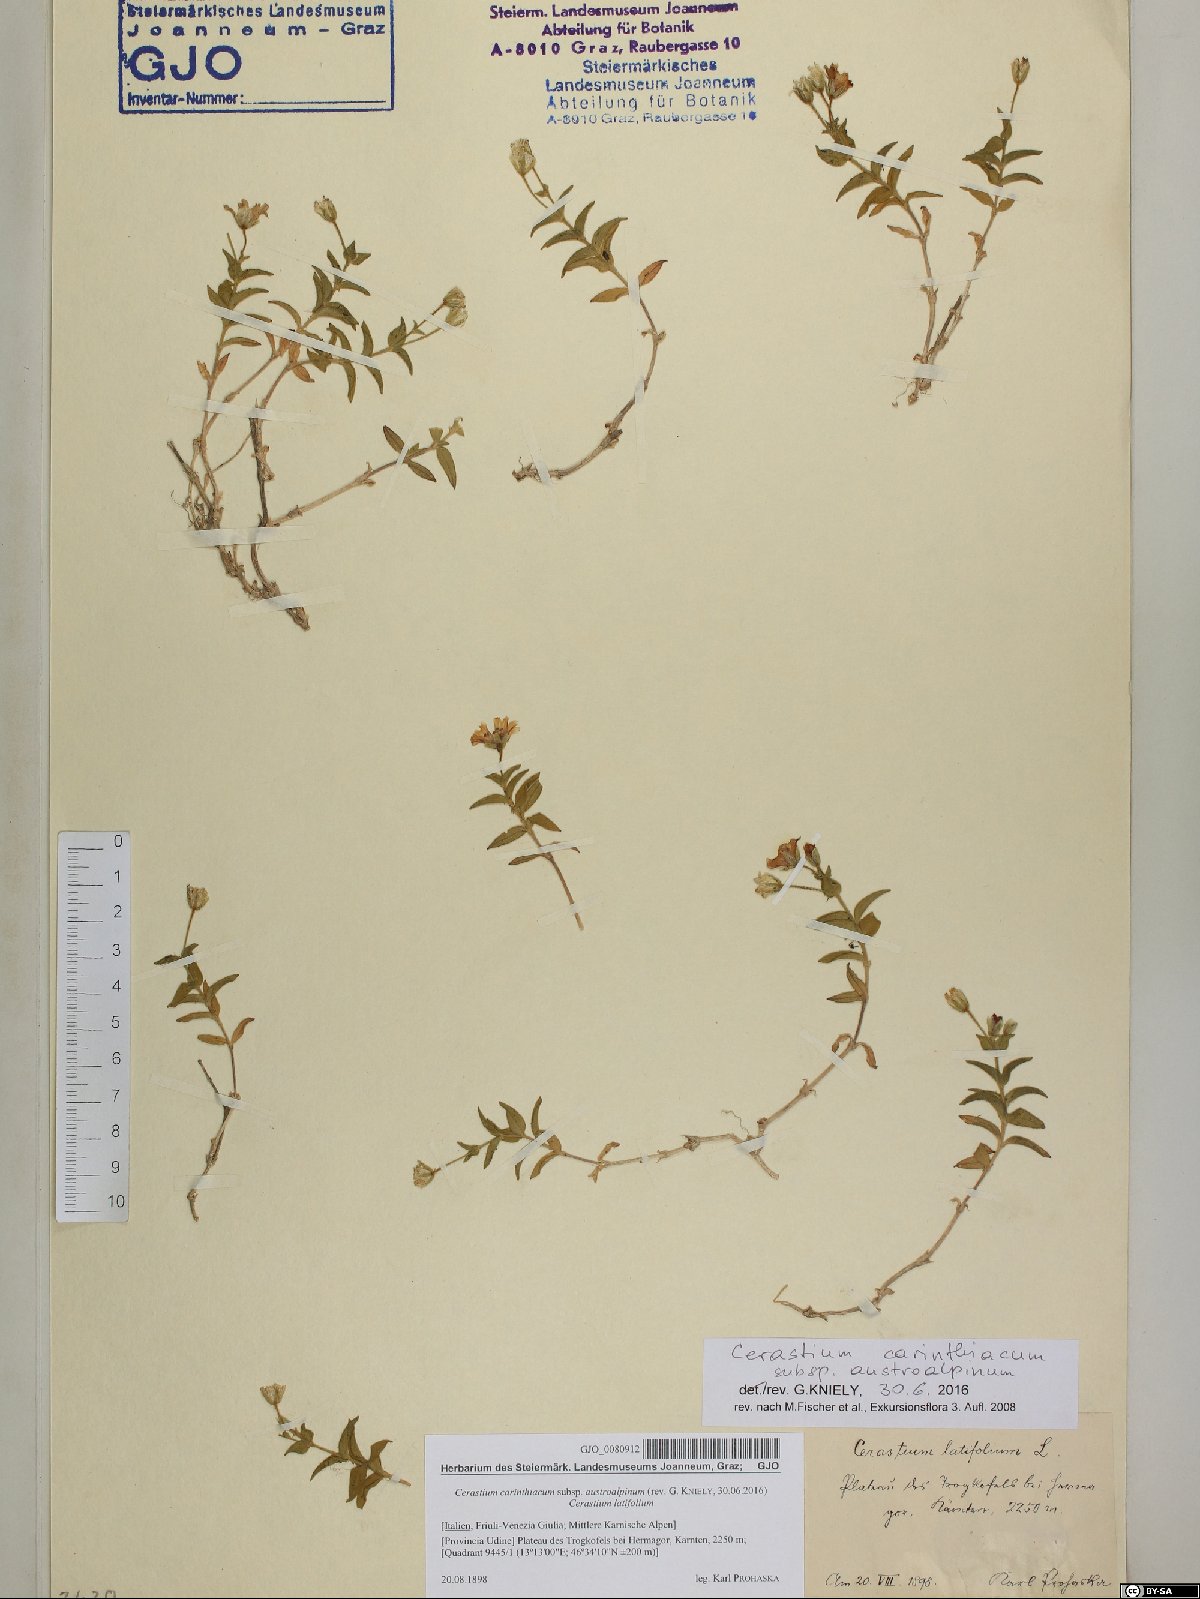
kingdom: Plantae
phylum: Tracheophyta
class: Magnoliopsida
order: Caryophyllales
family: Caryophyllaceae
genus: Cerastium
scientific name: Cerastium carinthiacum
